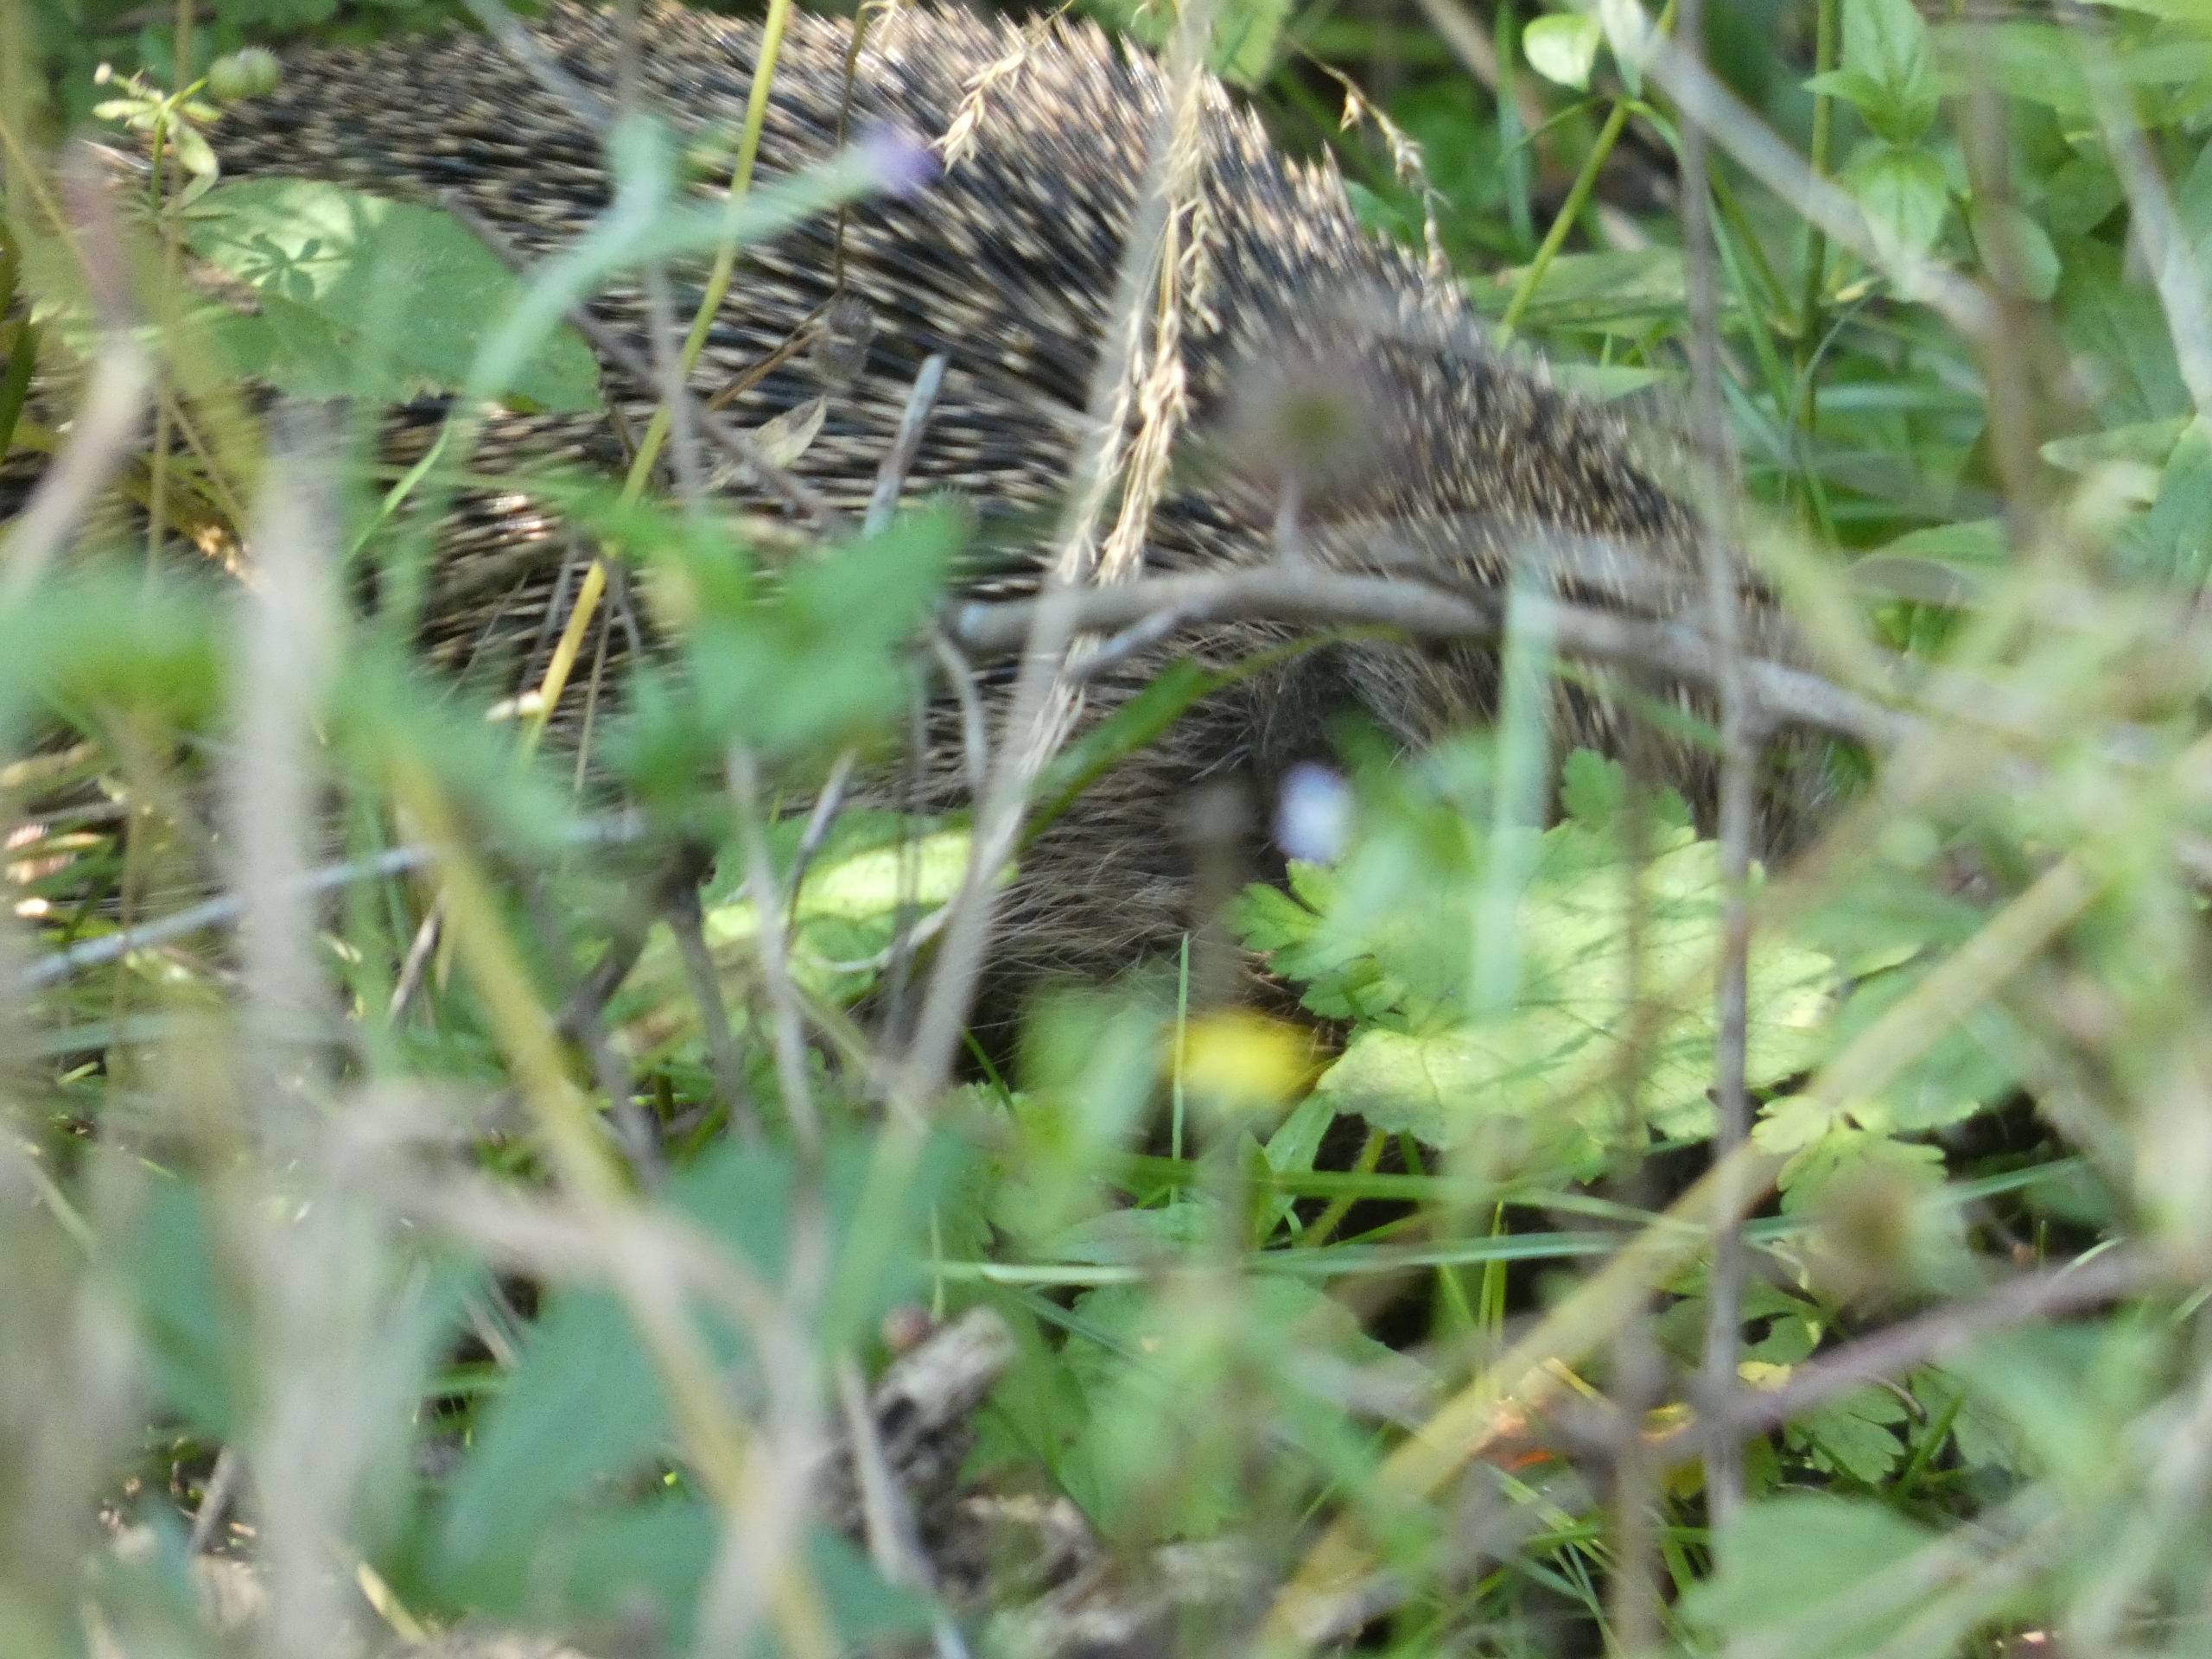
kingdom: Animalia
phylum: Chordata
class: Mammalia
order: Erinaceomorpha
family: Erinaceidae
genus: Erinaceus
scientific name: Erinaceus europaeus
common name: Pindsvin
